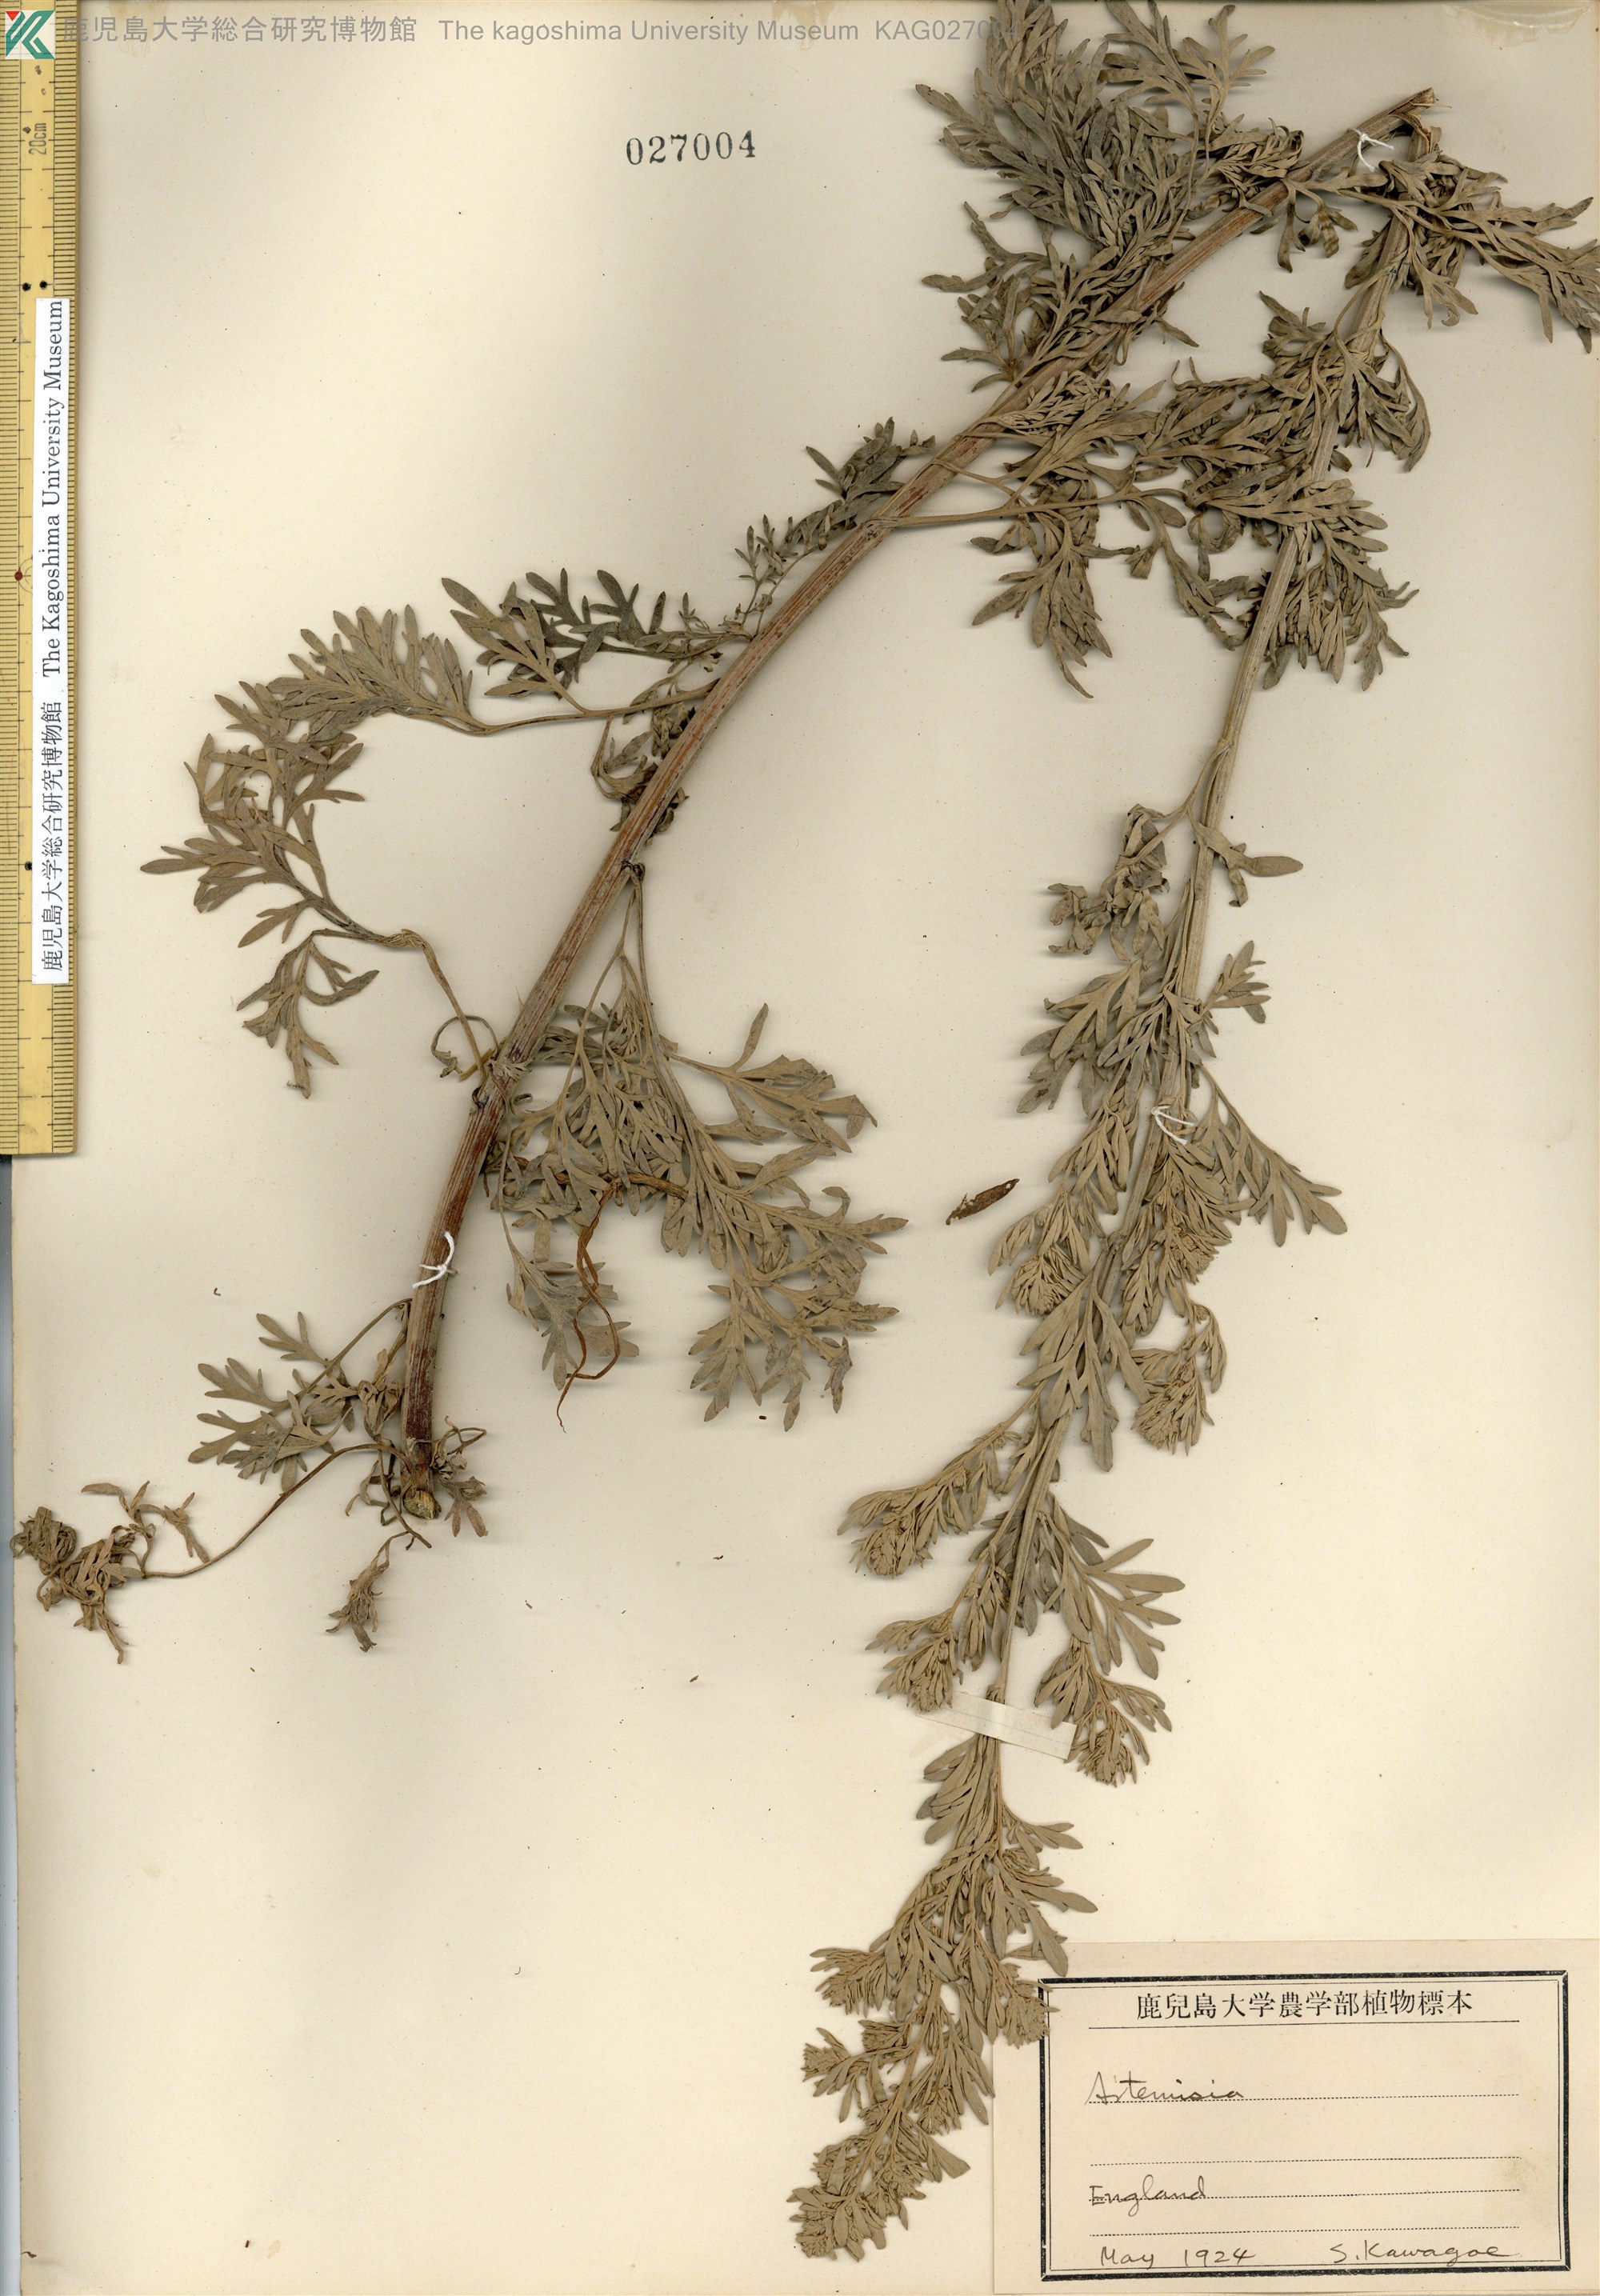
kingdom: Plantae
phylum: Tracheophyta
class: Magnoliopsida
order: Asterales
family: Asteraceae
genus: Artemisia
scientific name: Artemisia absinthium
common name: Wormwood
